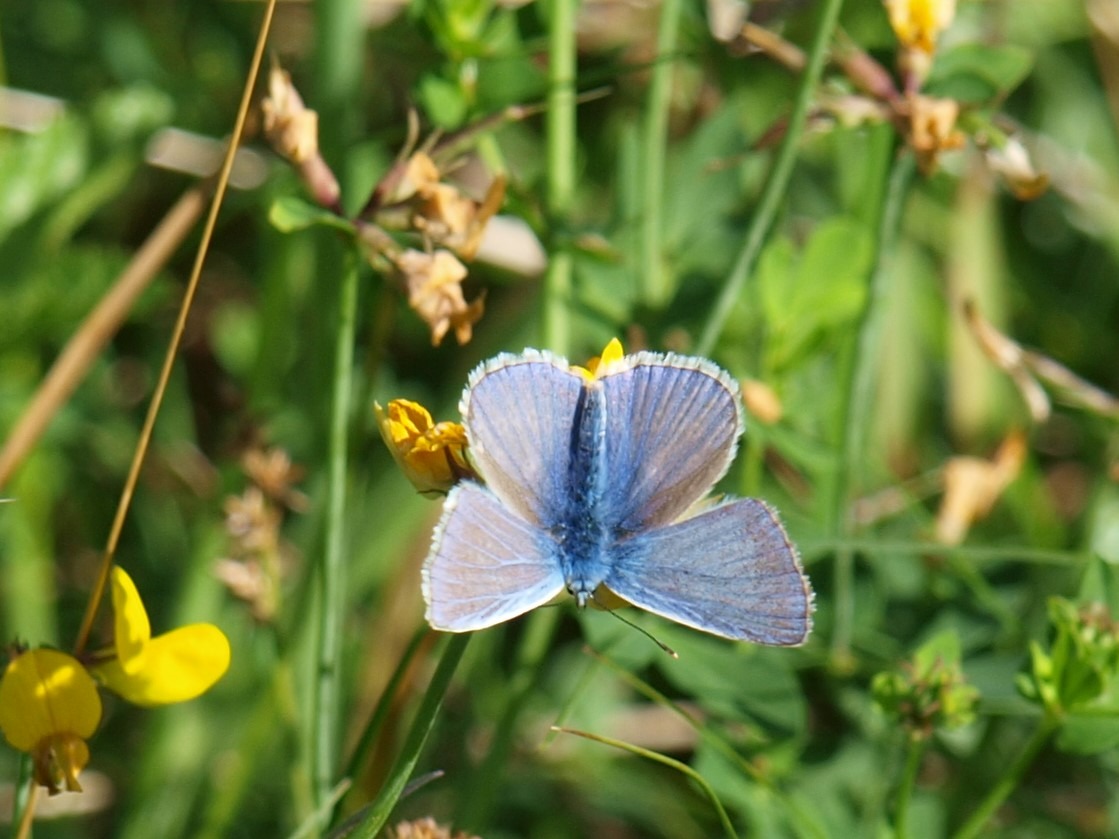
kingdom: Animalia
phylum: Arthropoda
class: Insecta
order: Lepidoptera
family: Lycaenidae
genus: Polyommatus
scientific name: Polyommatus icarus
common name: Almindelig blåfugl
